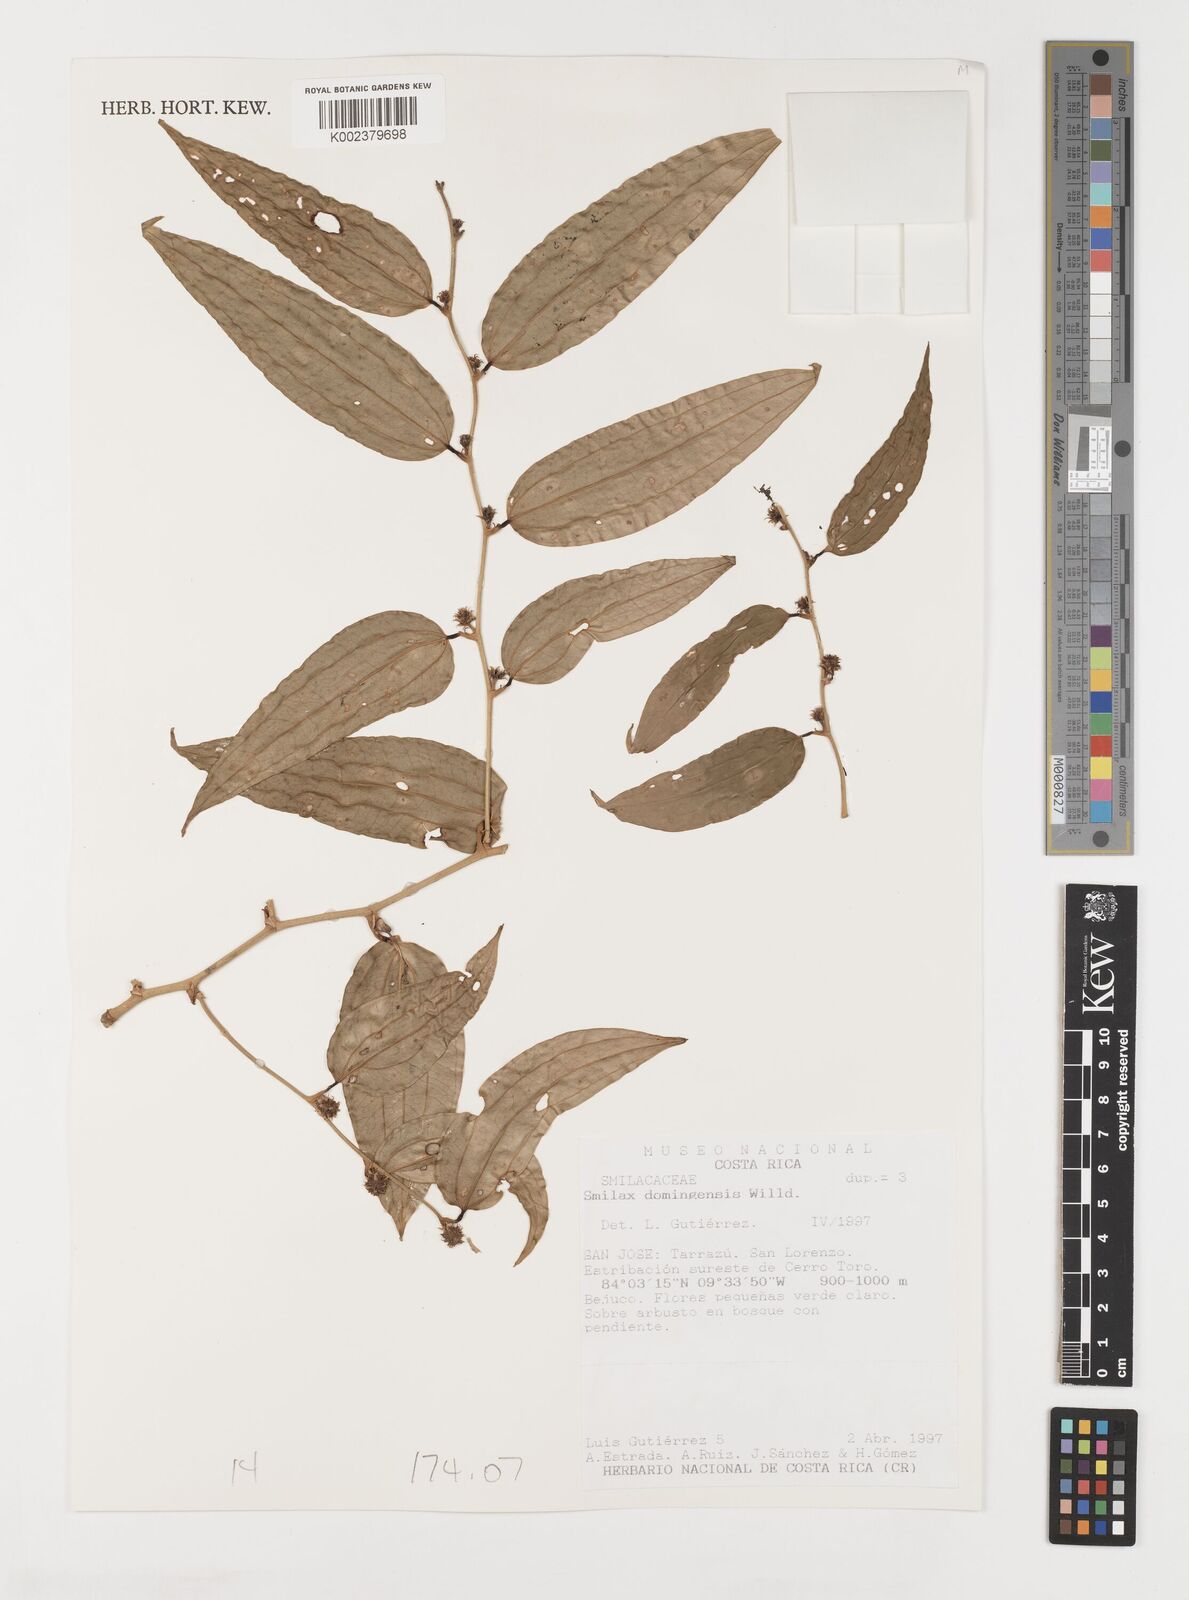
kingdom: Plantae
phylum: Tracheophyta
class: Liliopsida
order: Liliales
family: Smilacaceae
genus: Smilax
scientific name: Smilax domingensis
